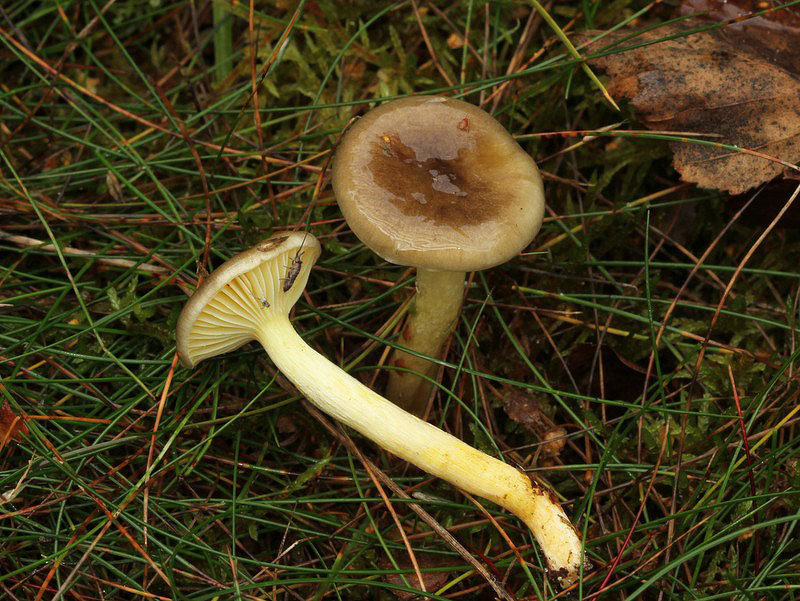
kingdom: Fungi
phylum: Basidiomycota
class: Agaricomycetes
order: Agaricales
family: Hygrophoraceae
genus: Hygrophorus
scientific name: Hygrophorus hypothejus
